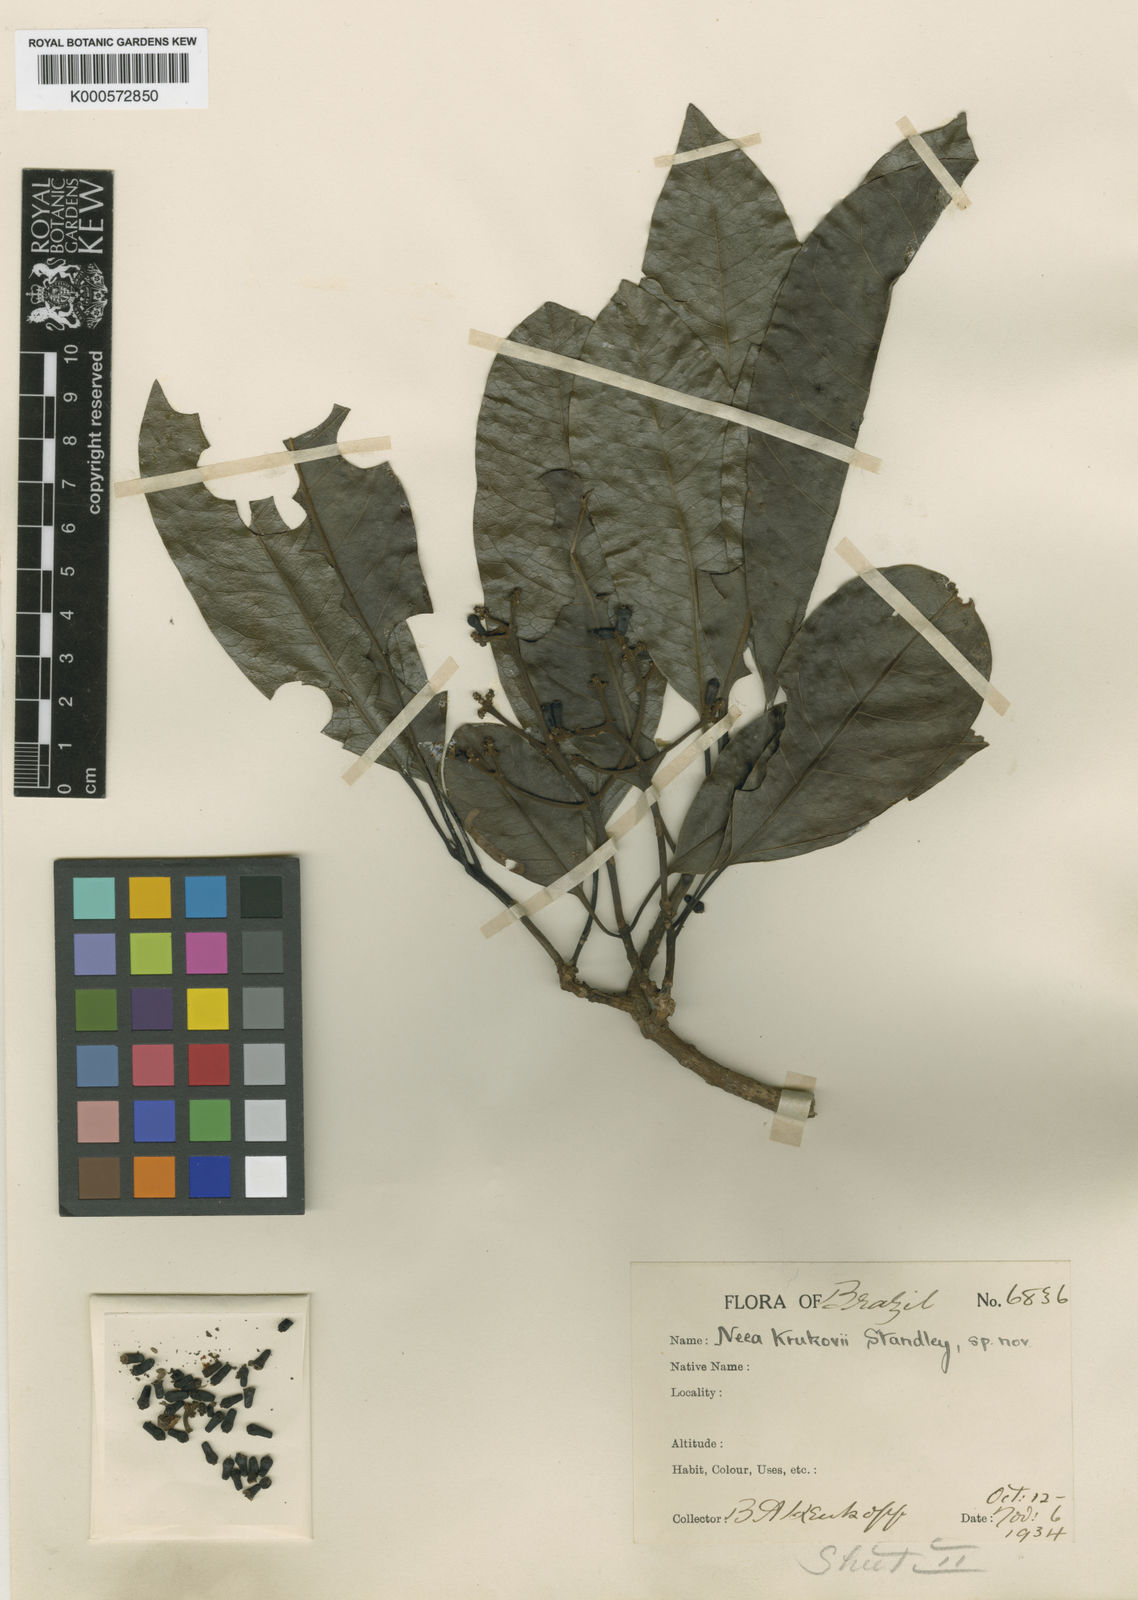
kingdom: Plantae
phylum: Tracheophyta
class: Magnoliopsida
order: Caryophyllales
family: Nyctaginaceae
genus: Neea
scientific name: Neea madeirana
